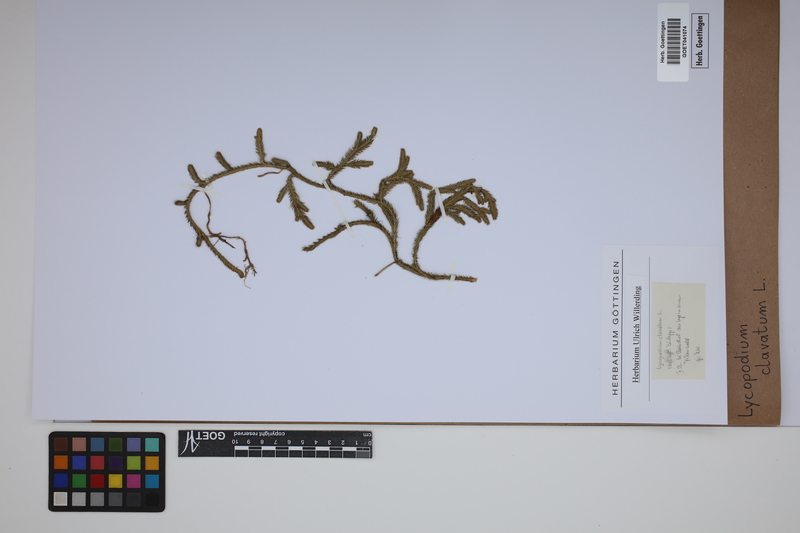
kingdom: Plantae
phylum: Tracheophyta
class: Lycopodiopsida
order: Lycopodiales
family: Lycopodiaceae
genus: Lycopodium
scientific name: Lycopodium clavatum
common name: Stag's-horn clubmoss
